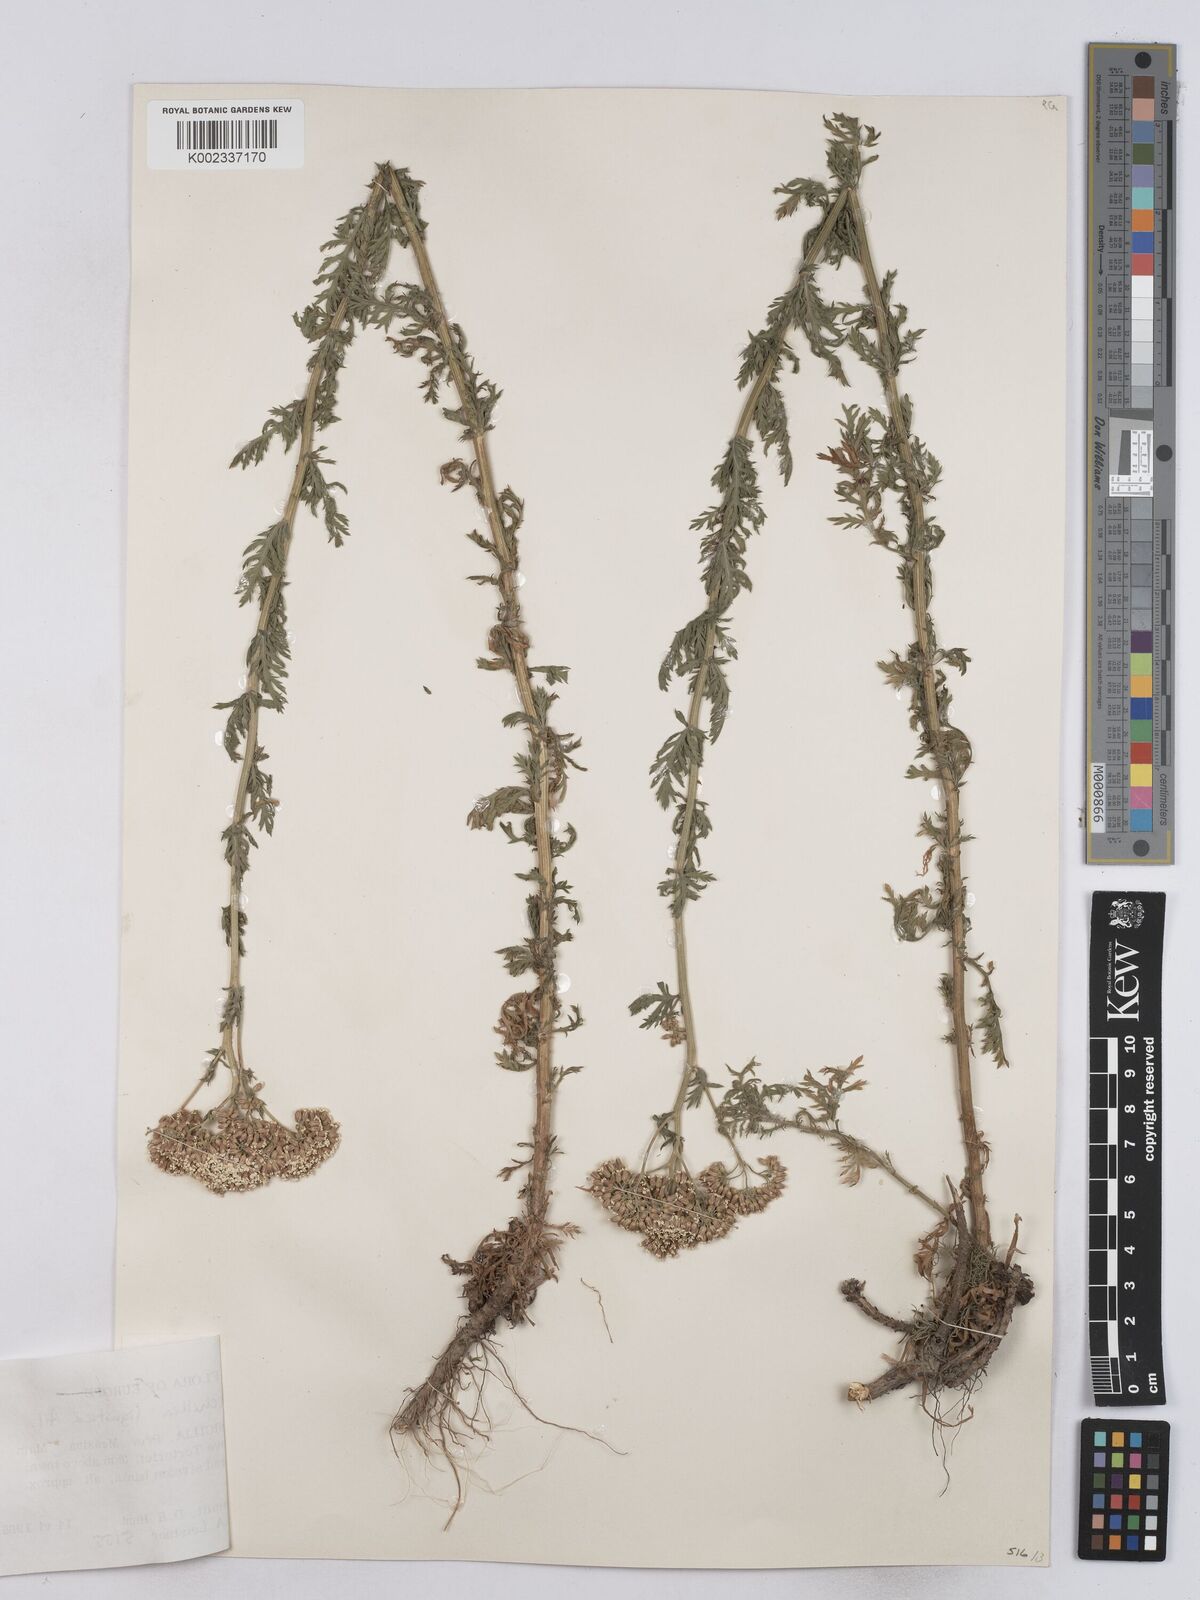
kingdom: Plantae
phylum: Tracheophyta
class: Magnoliopsida
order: Asterales
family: Asteraceae
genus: Achillea
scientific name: Achillea ligustica
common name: Southern yarrow
